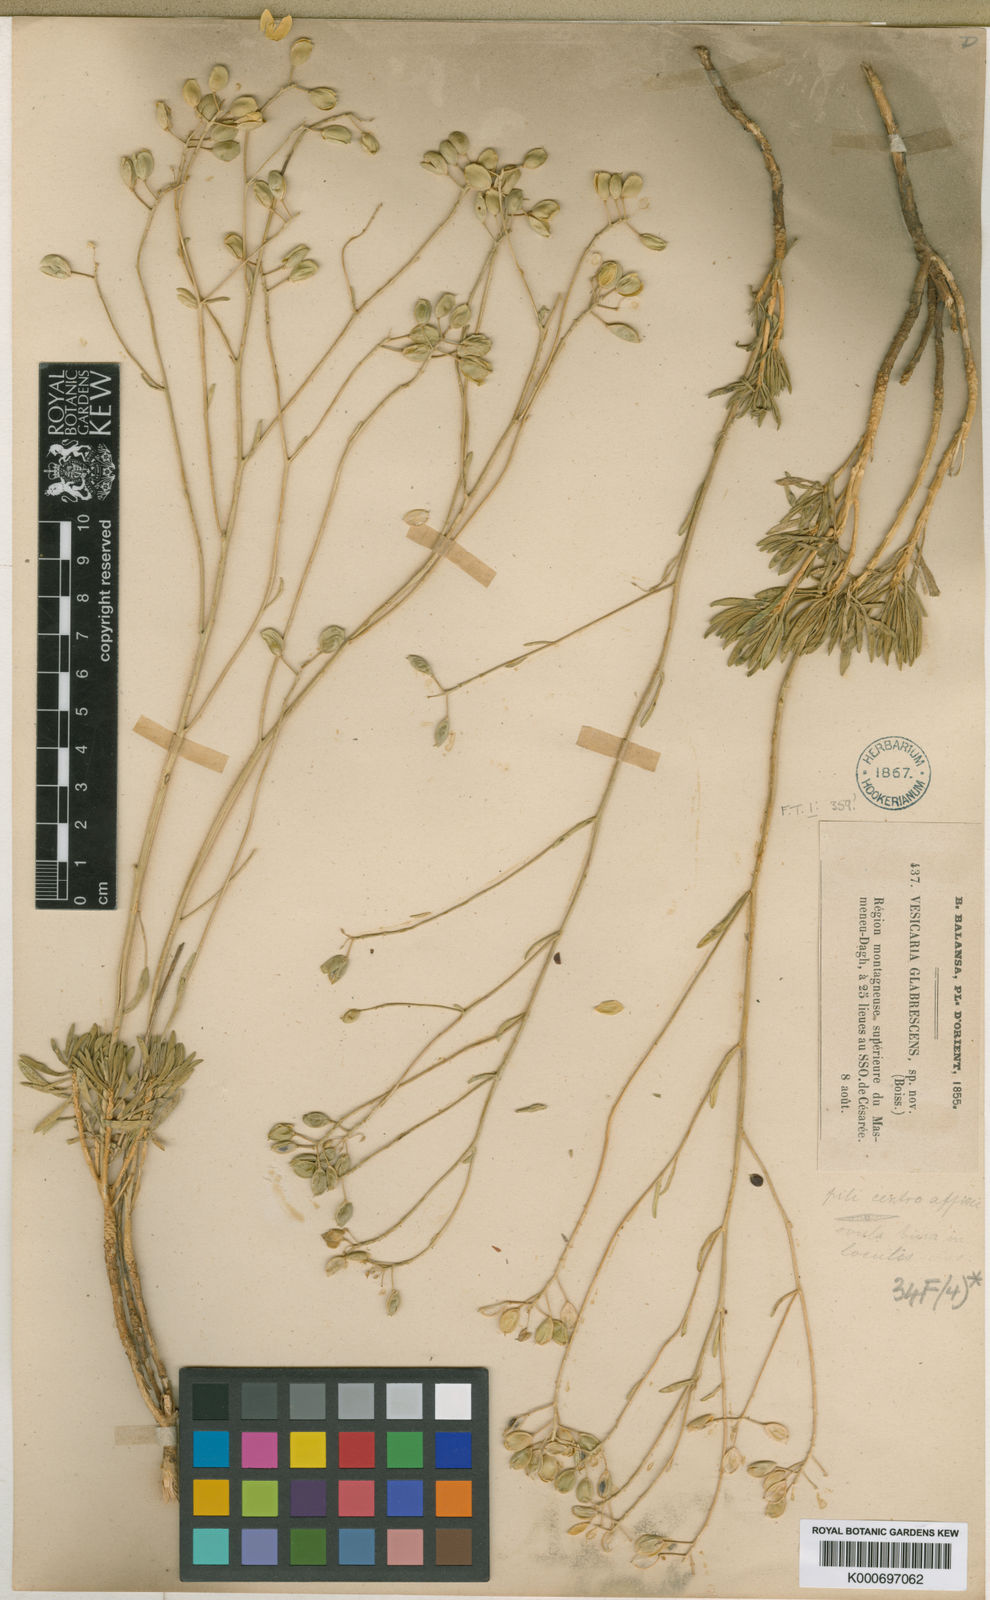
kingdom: Plantae
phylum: Tracheophyta
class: Magnoliopsida
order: Brassicales
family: Brassicaceae
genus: Bornmuellera
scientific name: Bornmuellera glabrescens
